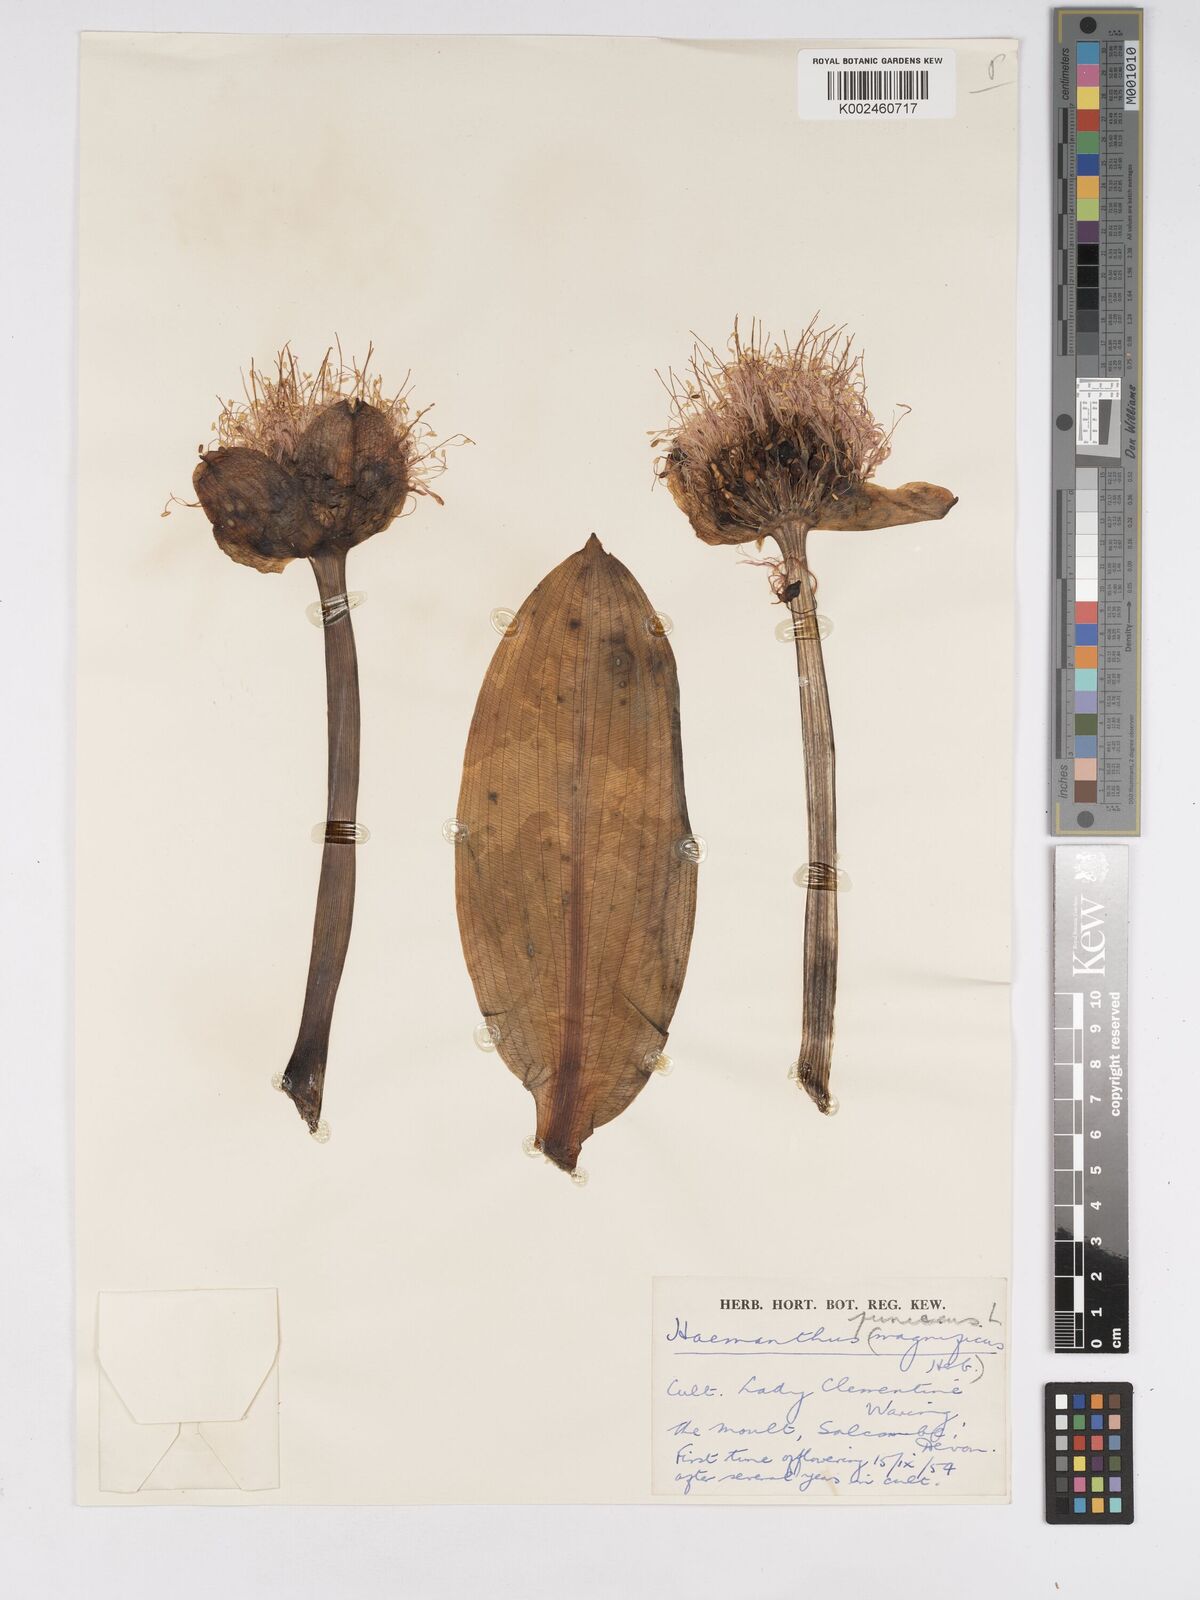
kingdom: Plantae
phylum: Tracheophyta
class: Liliopsida
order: Asparagales
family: Amaryllidaceae
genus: Scadoxus
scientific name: Scadoxus puniceus
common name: Royal-paintbrush
